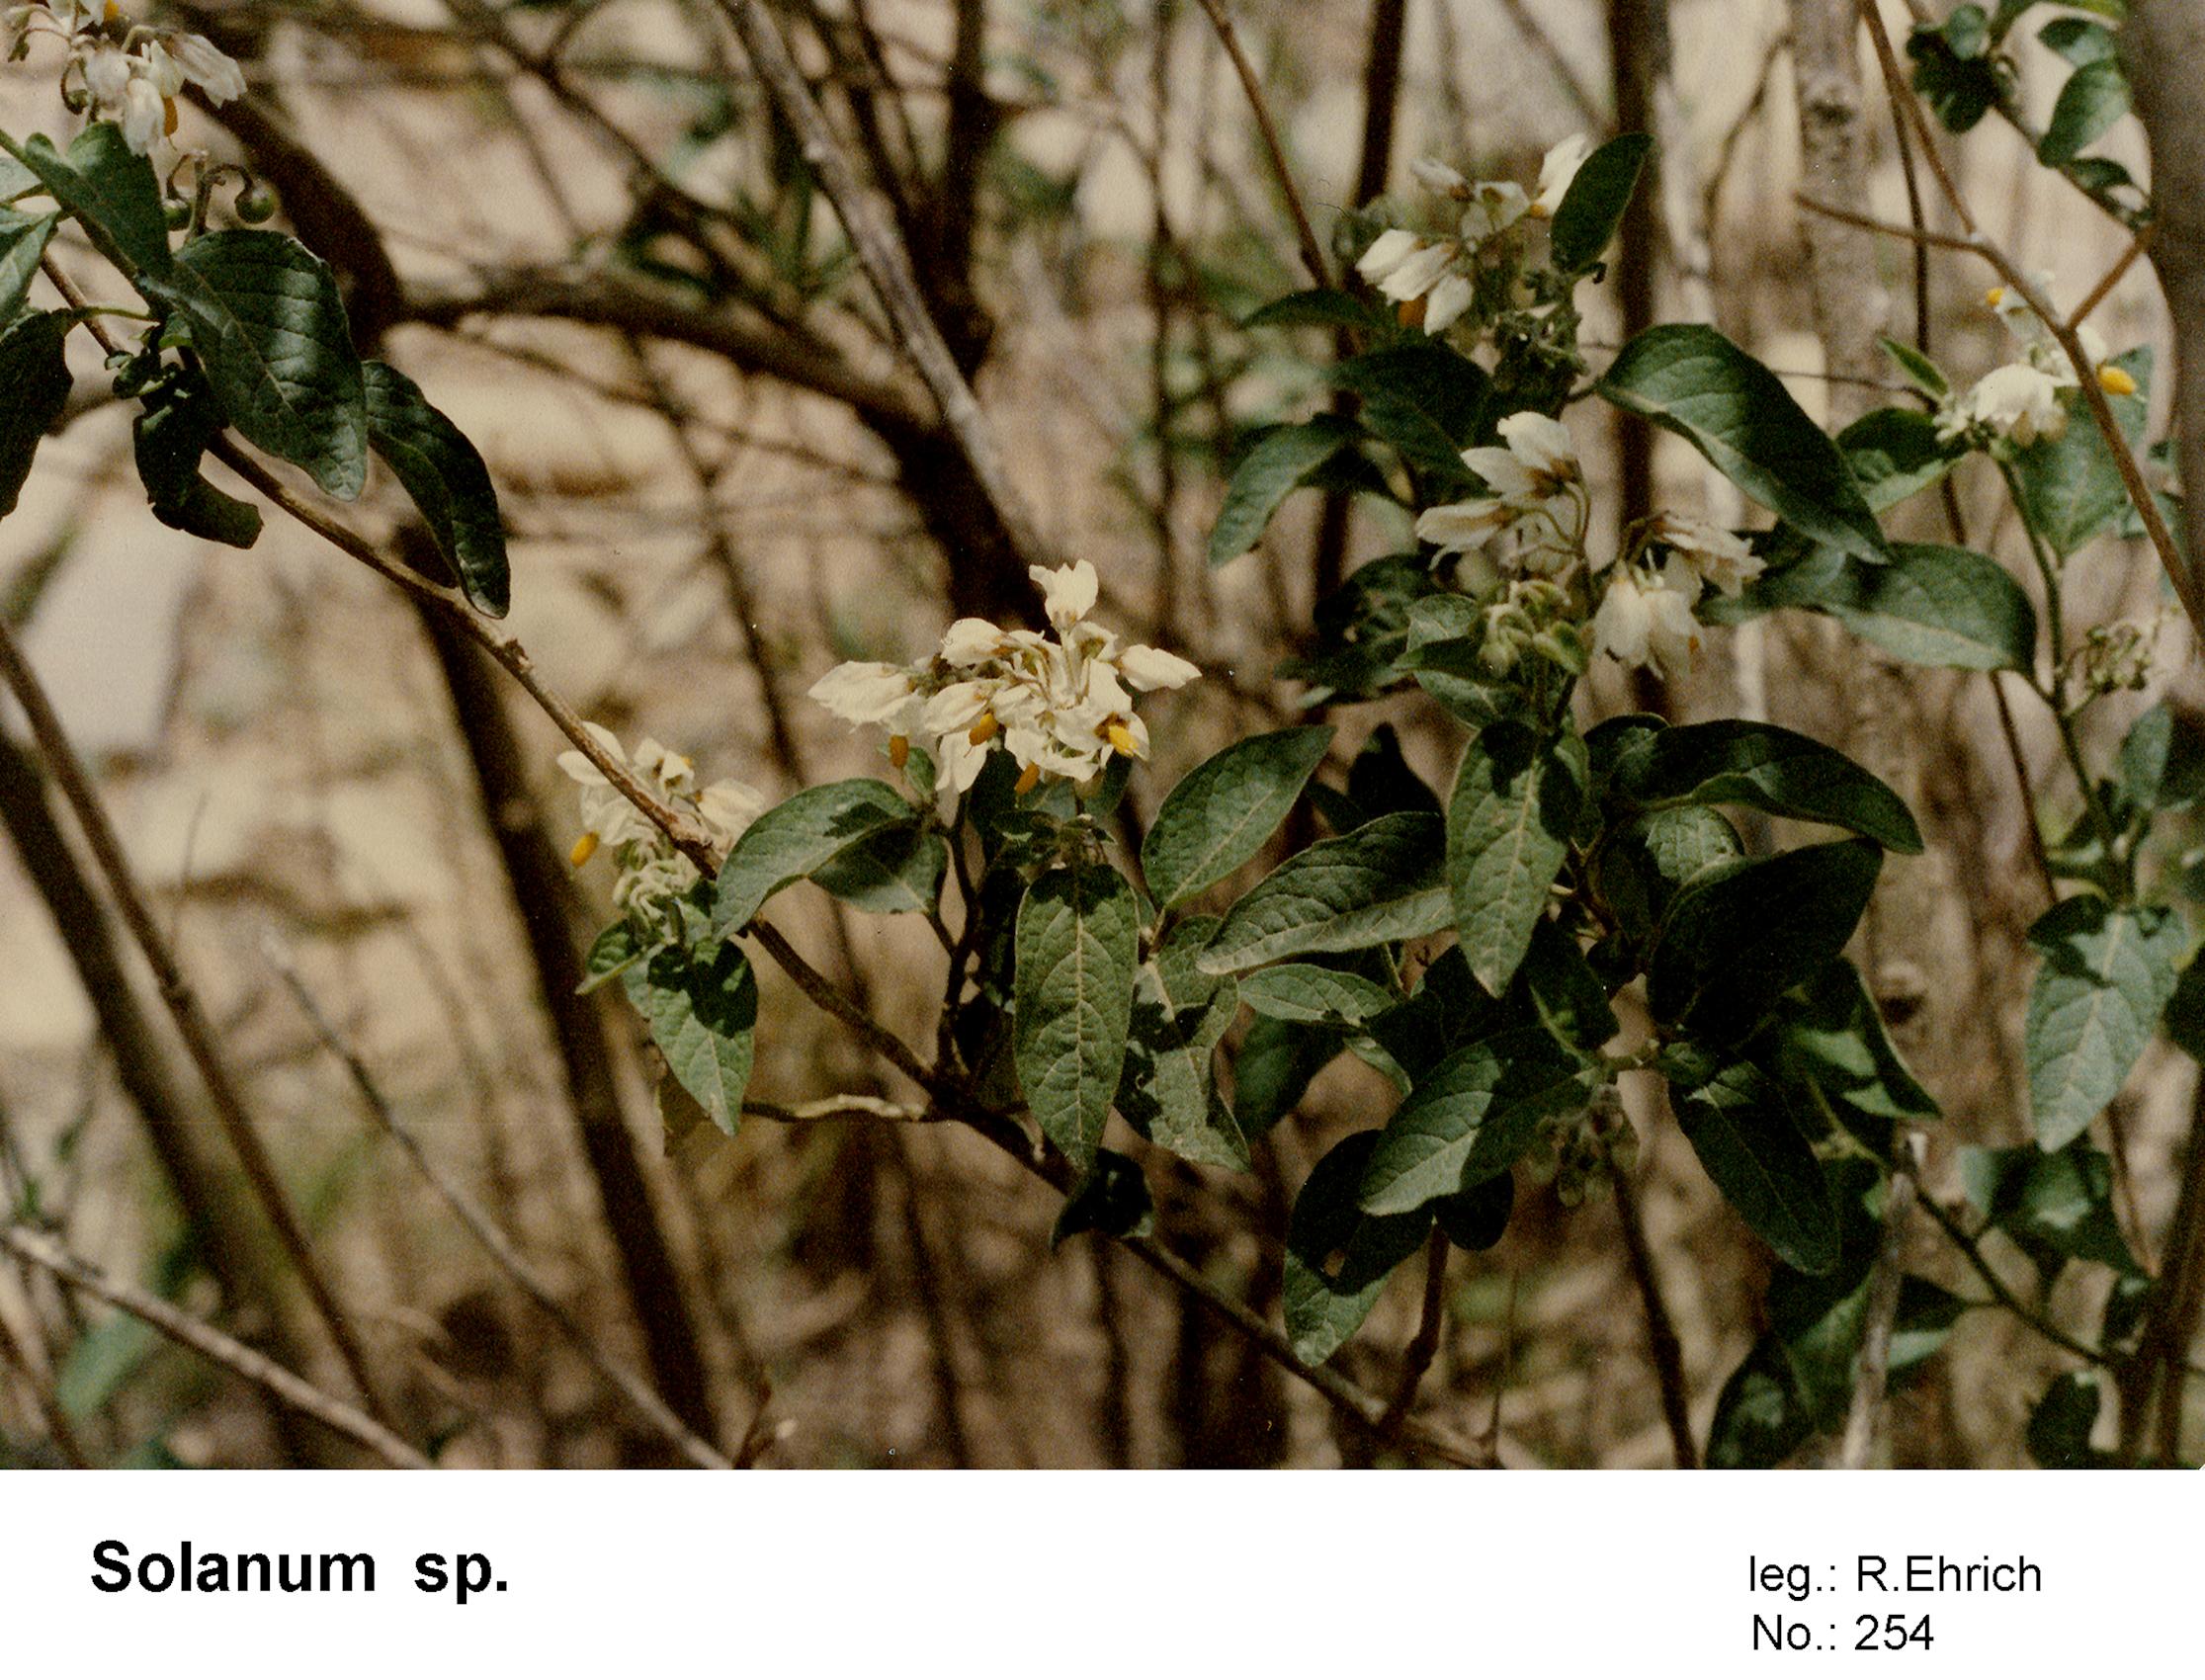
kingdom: Plantae
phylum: Tracheophyta
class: Magnoliopsida
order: Solanales
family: Solanaceae
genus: Solanum
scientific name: Solanum cochabambense
